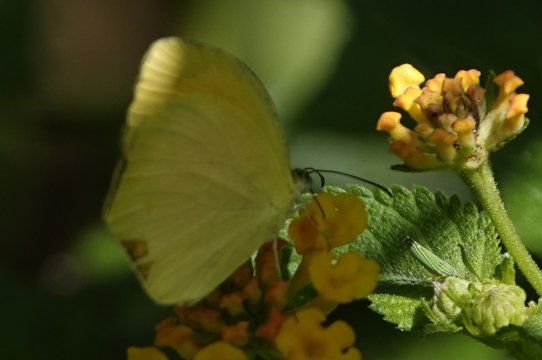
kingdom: Animalia
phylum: Arthropoda
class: Insecta
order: Lepidoptera
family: Pieridae
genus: Eurema
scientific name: Eurema albula
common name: White Yellow
